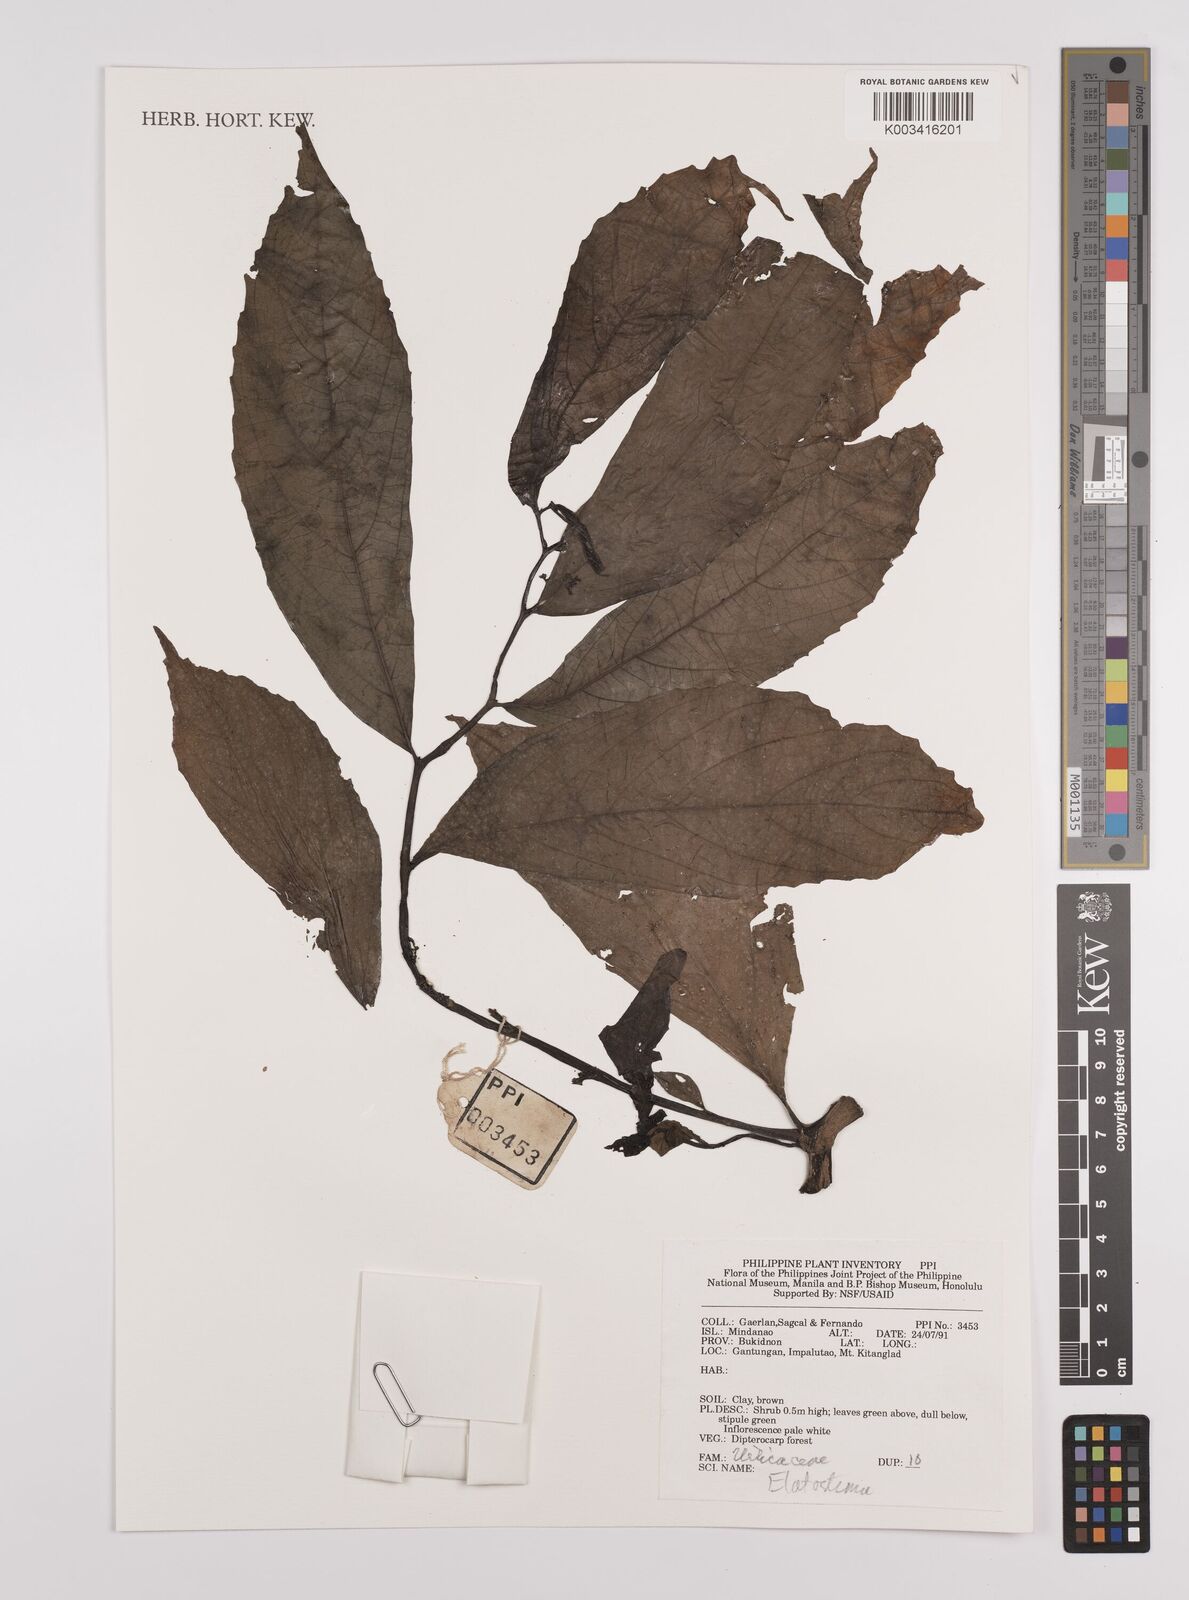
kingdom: Plantae
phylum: Tracheophyta
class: Magnoliopsida
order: Rosales
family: Urticaceae
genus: Elatostema
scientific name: Elatostema
